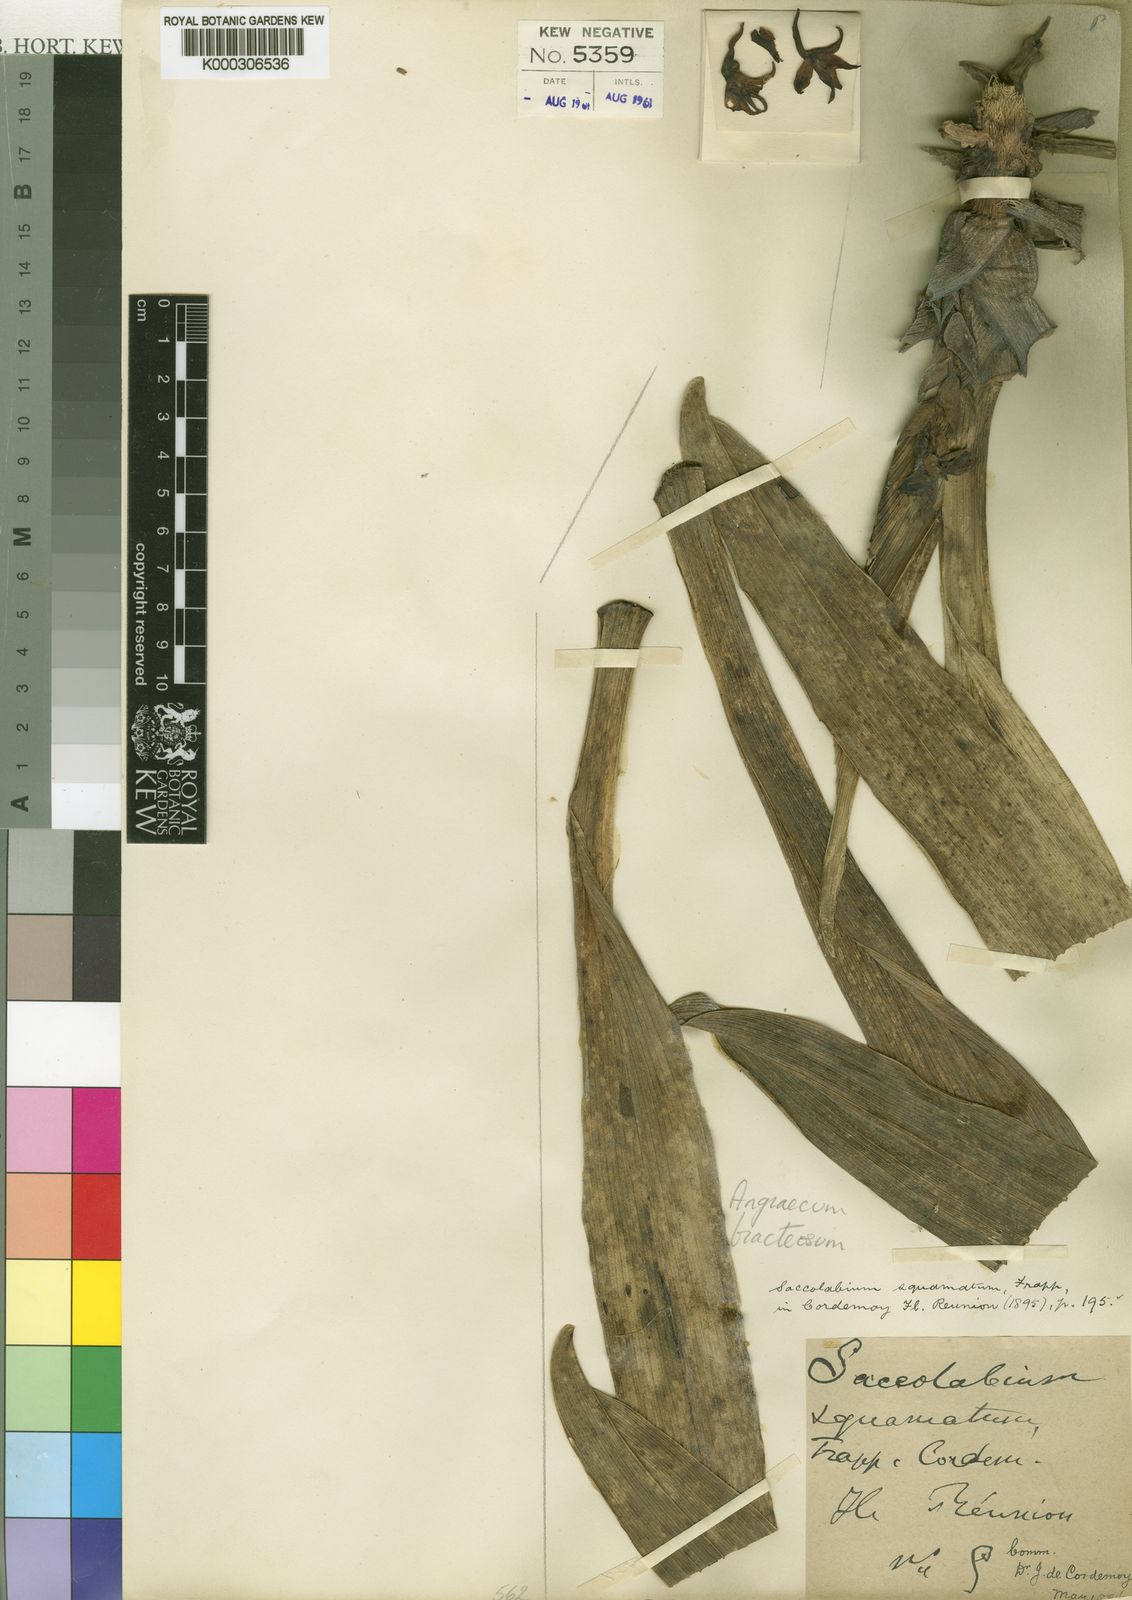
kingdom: Plantae
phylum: Tracheophyta
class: Liliopsida
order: Asparagales
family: Orchidaceae
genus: Angraecum
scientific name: Angraecum bracteosum
